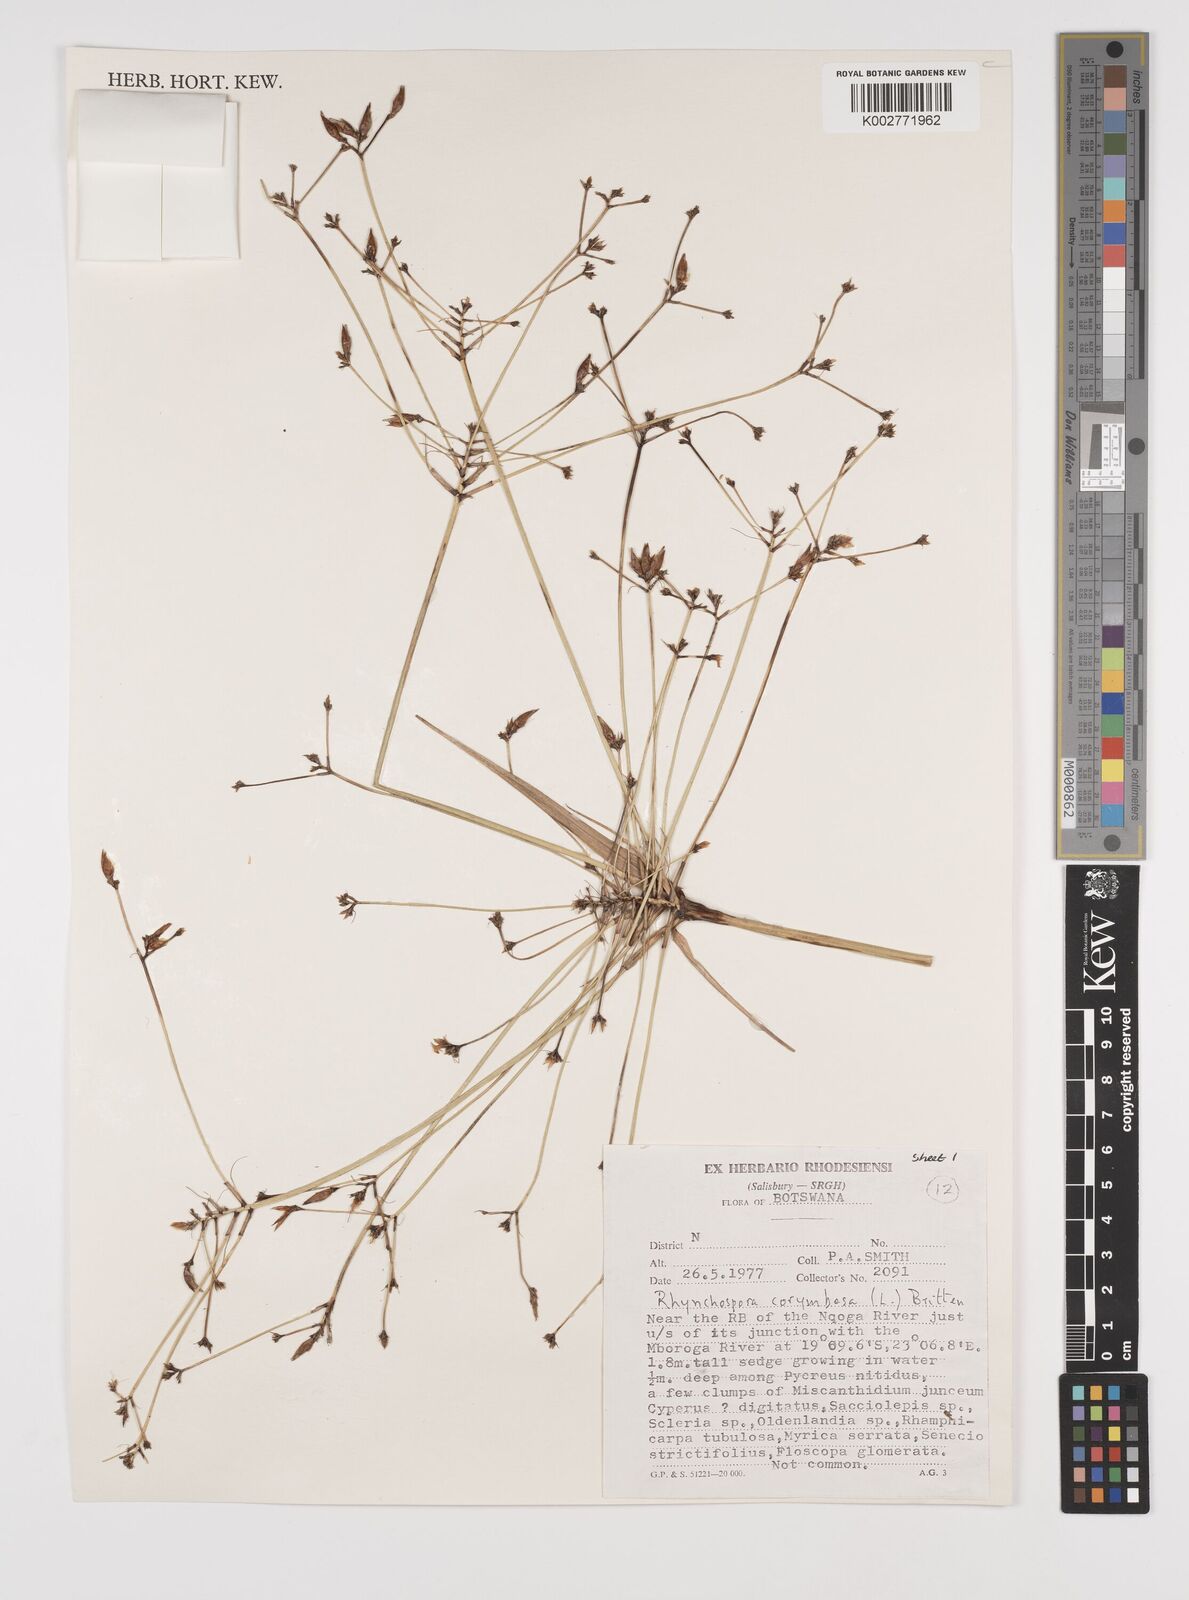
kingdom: Plantae
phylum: Tracheophyta
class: Liliopsida
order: Poales
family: Cyperaceae
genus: Rhynchospora
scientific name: Rhynchospora corymbosa
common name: Golden beak sedge
